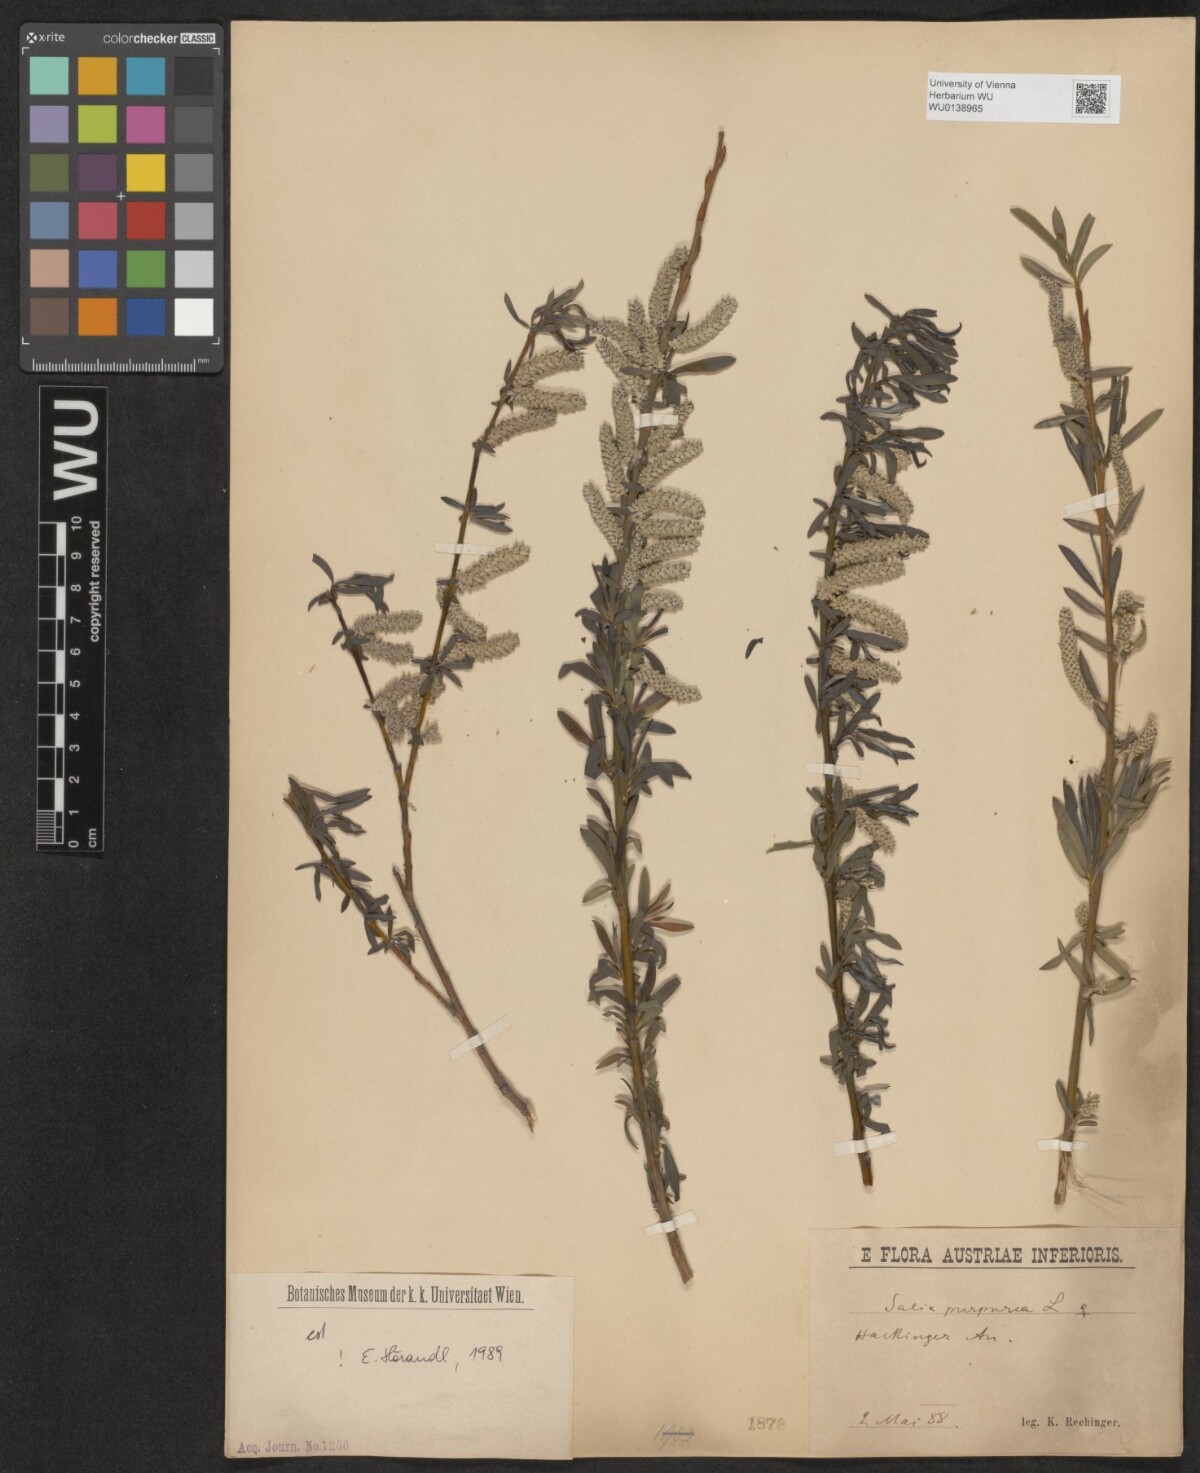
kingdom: Plantae
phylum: Tracheophyta
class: Magnoliopsida
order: Malpighiales
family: Salicaceae
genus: Salix
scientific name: Salix purpurea
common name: Purple willow
